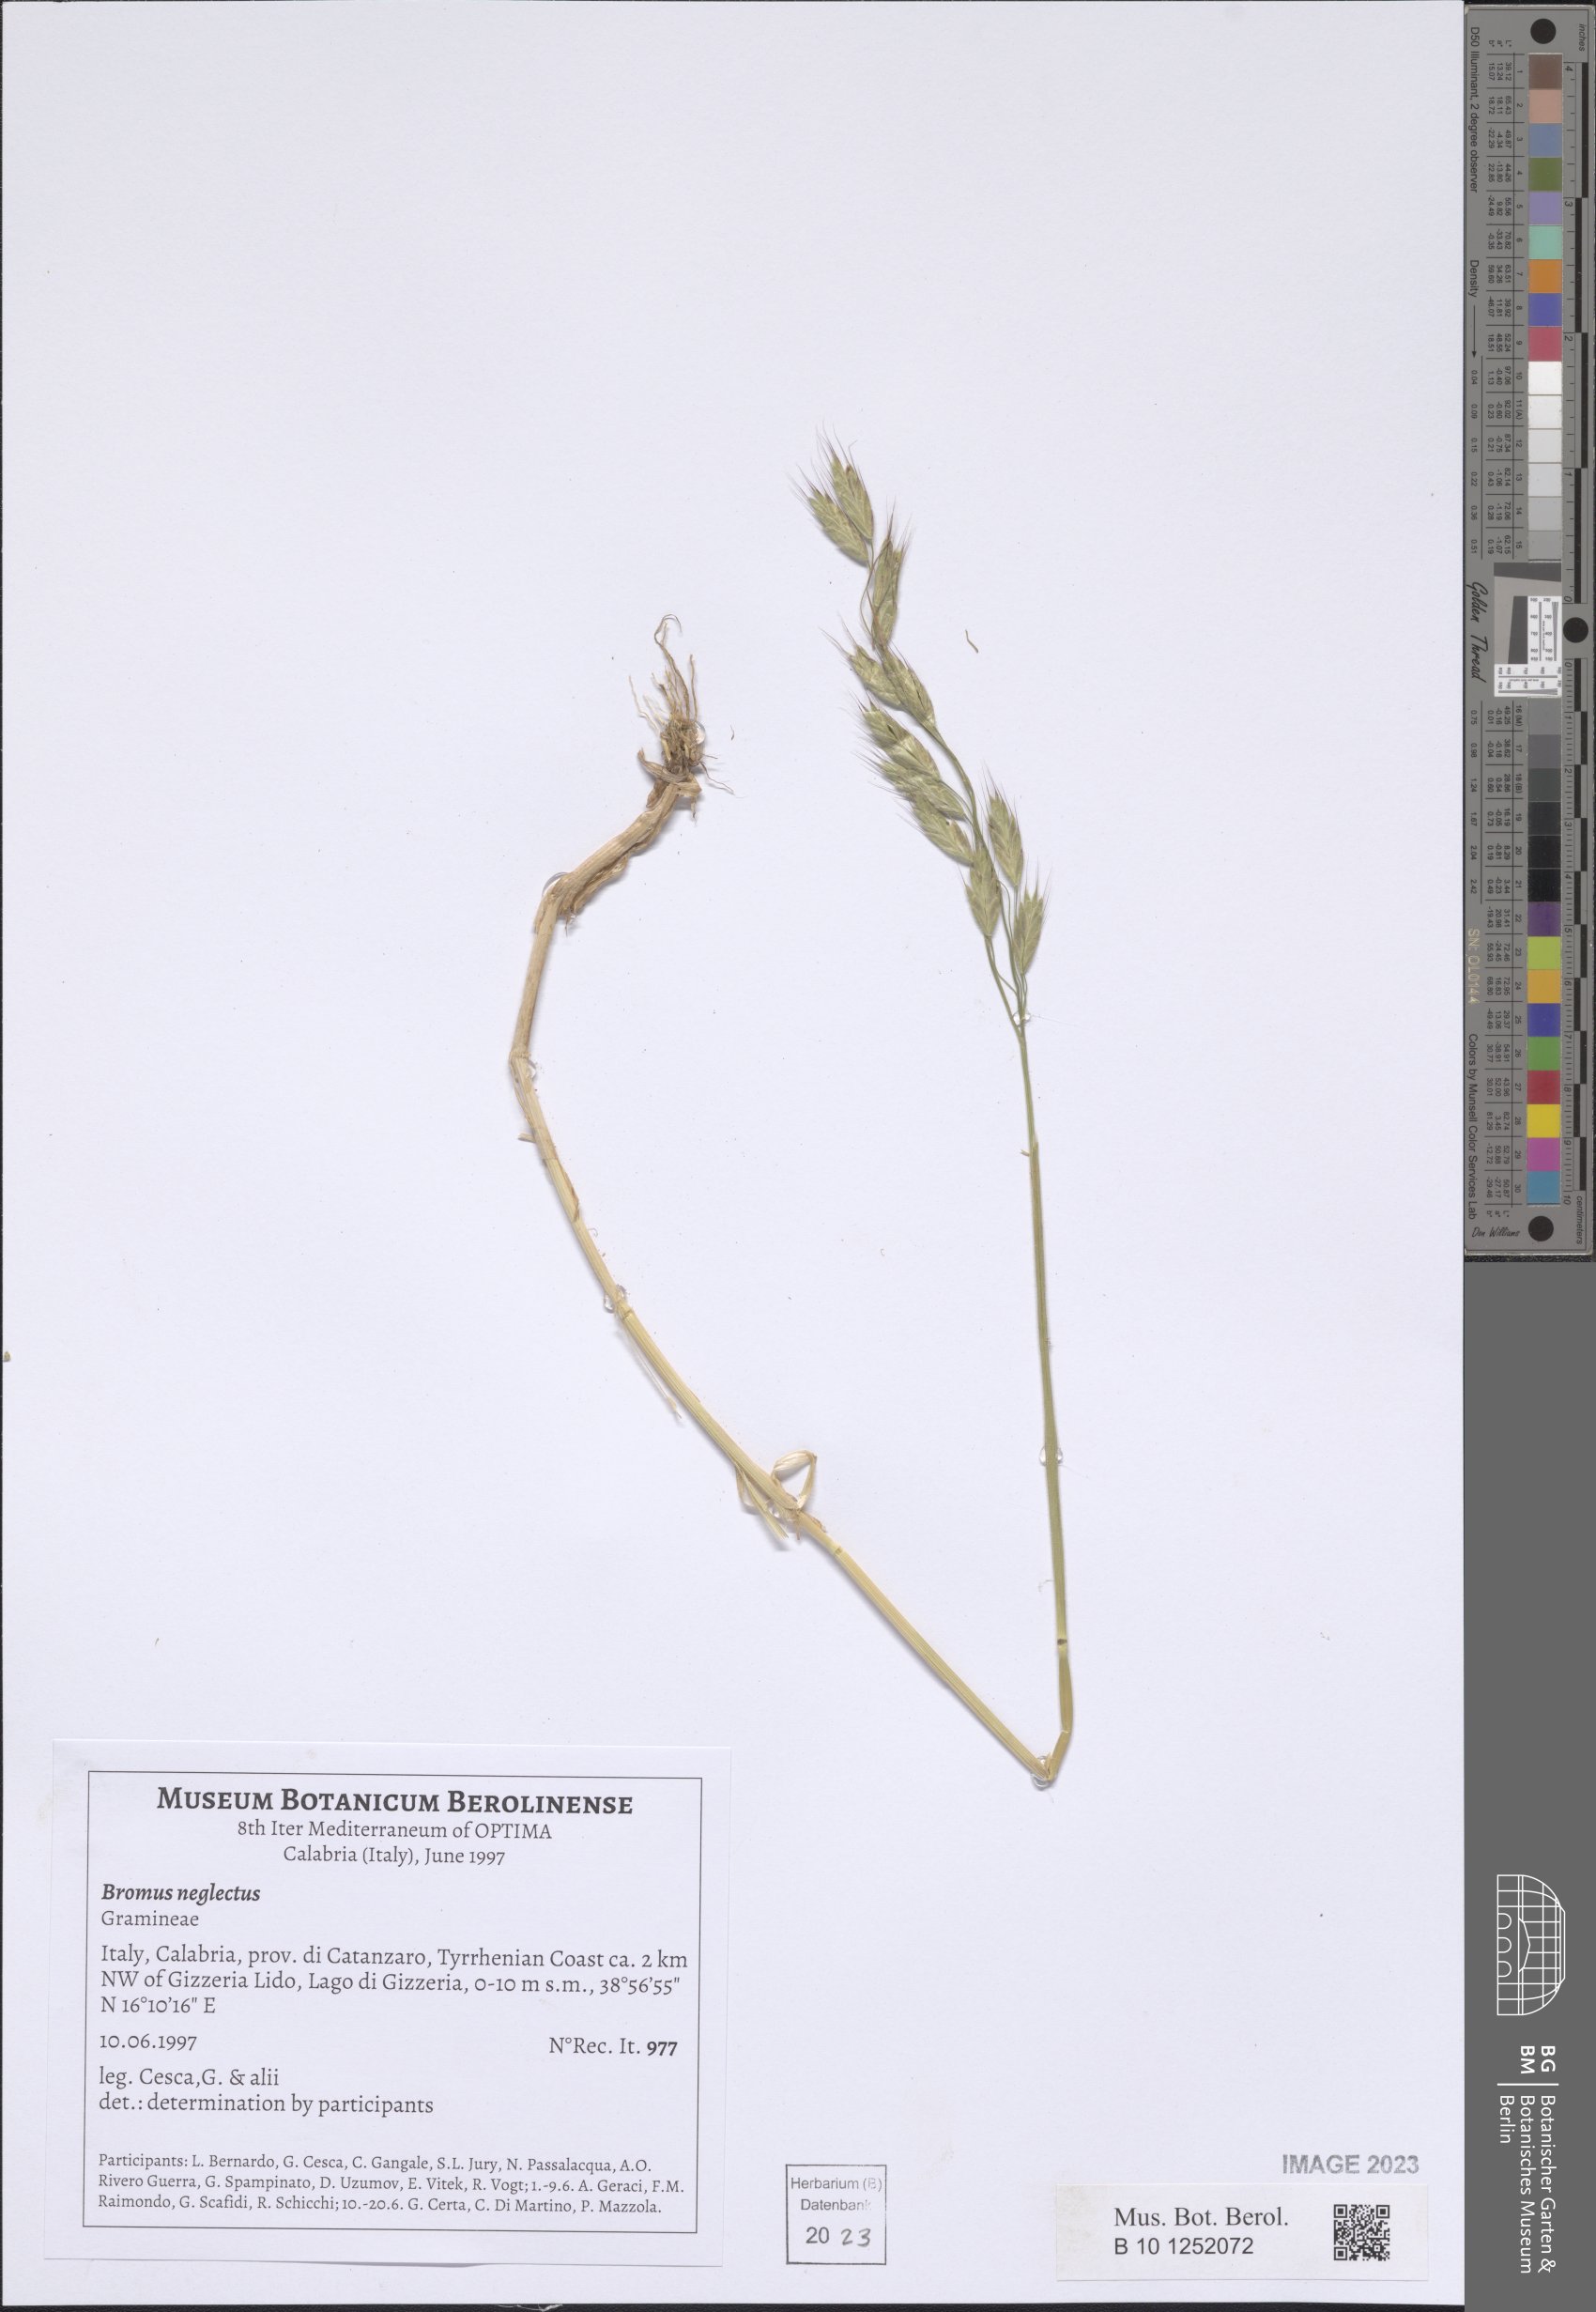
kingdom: Plantae
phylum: Tracheophyta
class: Liliopsida
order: Poales
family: Poaceae
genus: Bromus
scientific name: Bromus commutatus
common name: Meadow brome
